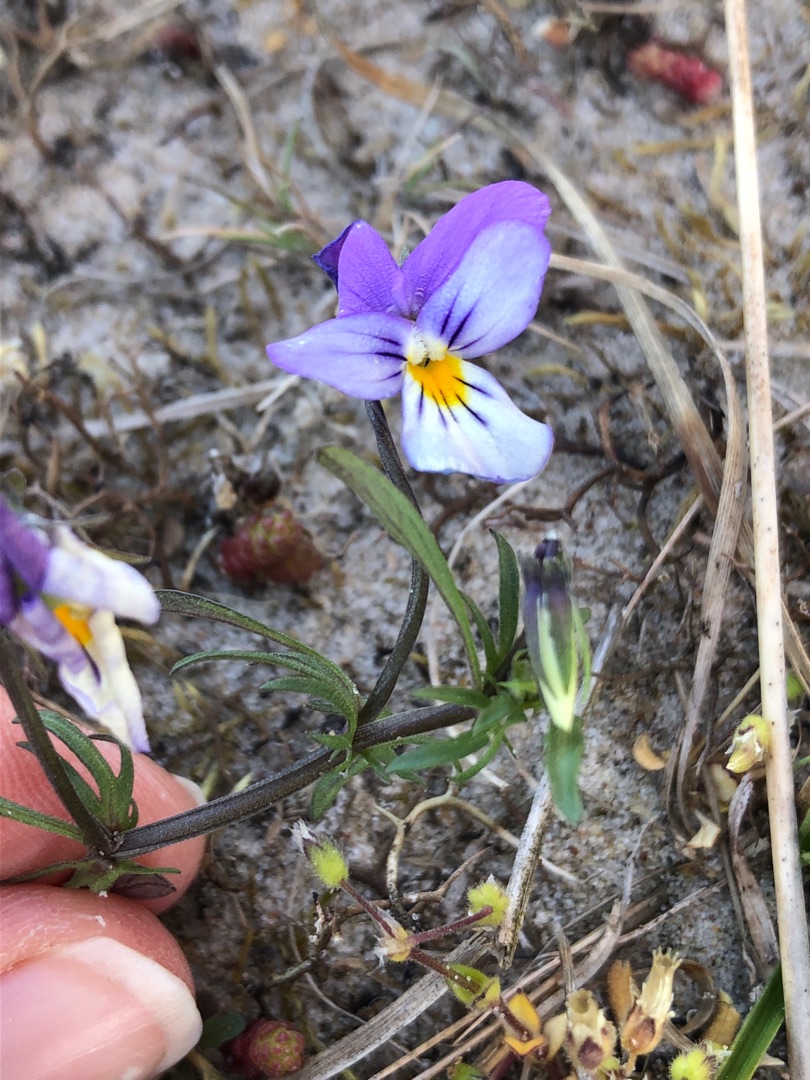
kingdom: Plantae
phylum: Tracheophyta
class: Magnoliopsida
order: Malpighiales
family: Violaceae
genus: Viola
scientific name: Viola tricolor
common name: Stedmoderblomst
